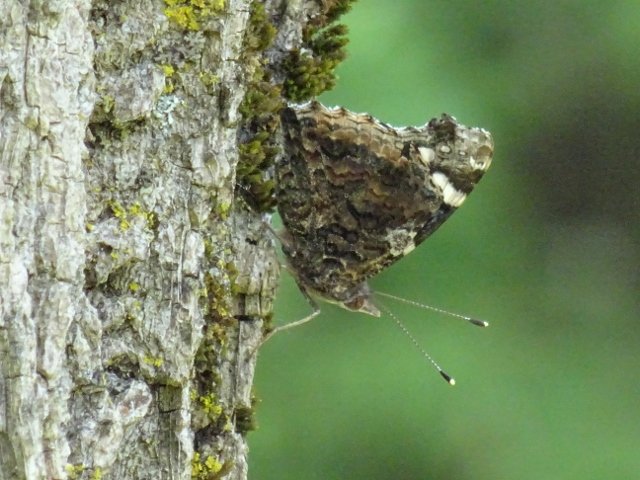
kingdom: Animalia
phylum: Arthropoda
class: Insecta
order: Lepidoptera
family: Nymphalidae
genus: Vanessa
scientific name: Vanessa atalanta
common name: Red Admiral
